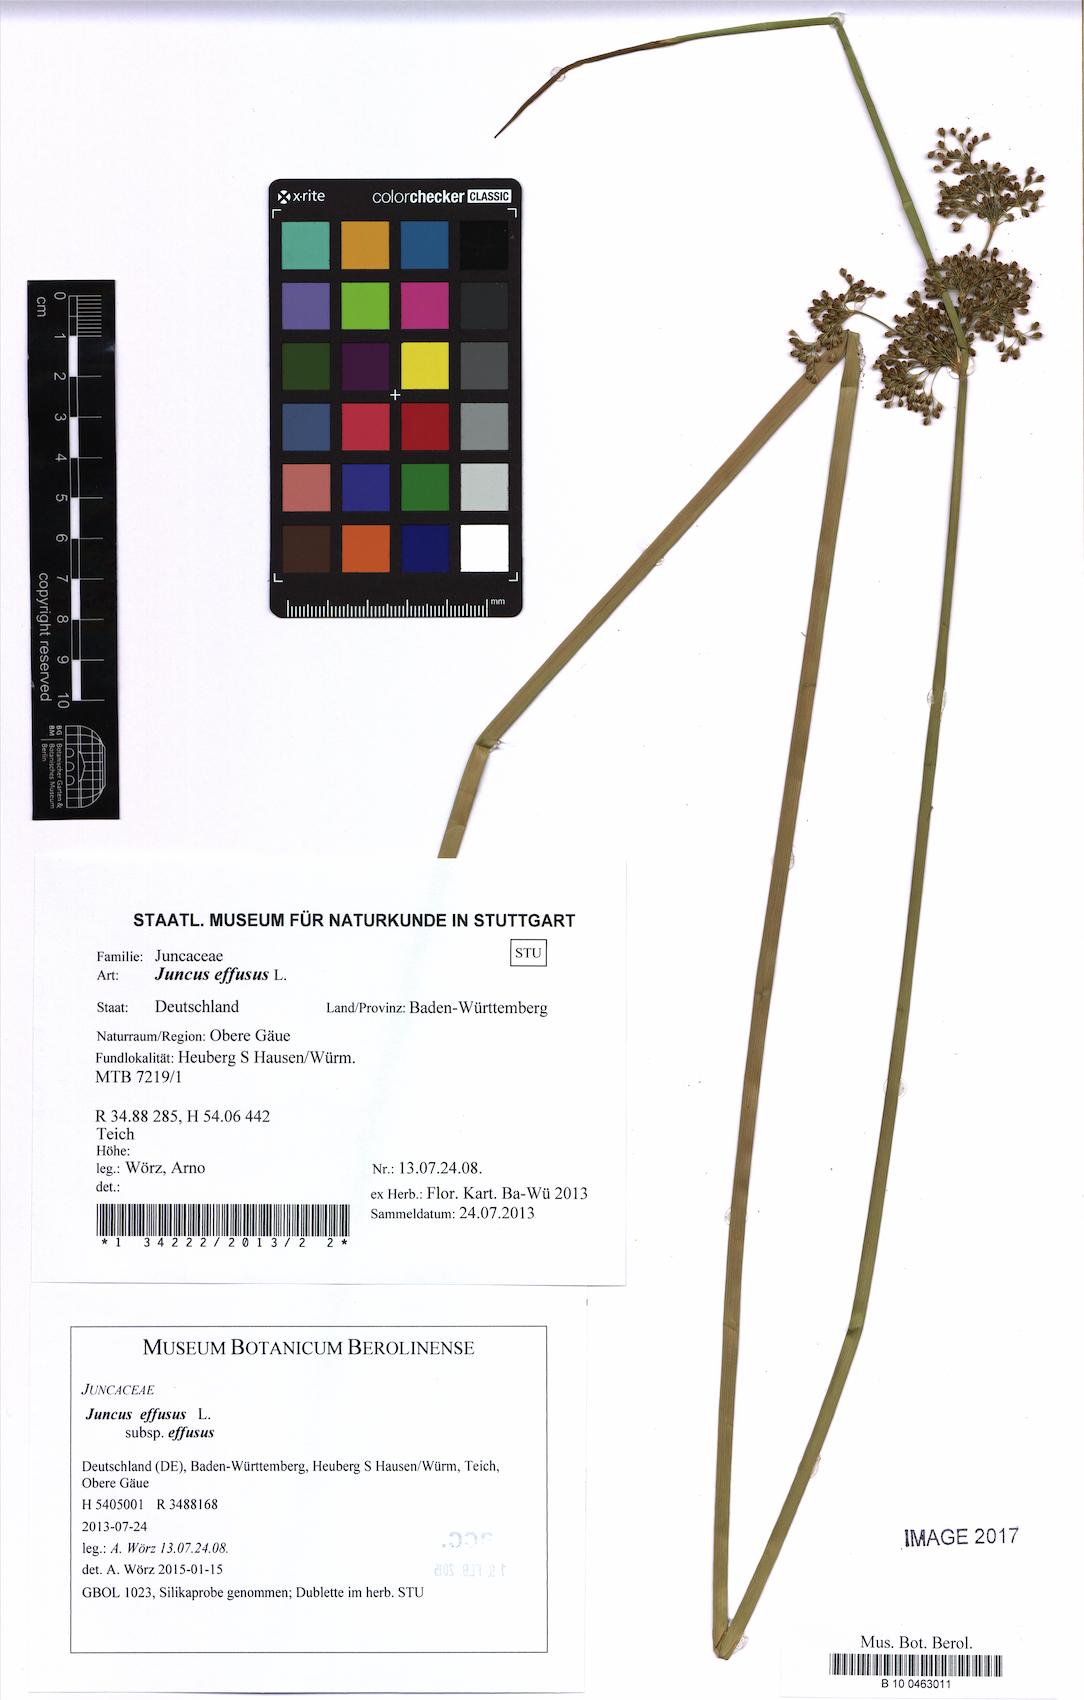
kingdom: Plantae
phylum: Tracheophyta
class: Liliopsida
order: Poales
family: Juncaceae
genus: Juncus
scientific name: Juncus effusus
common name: Soft rush
